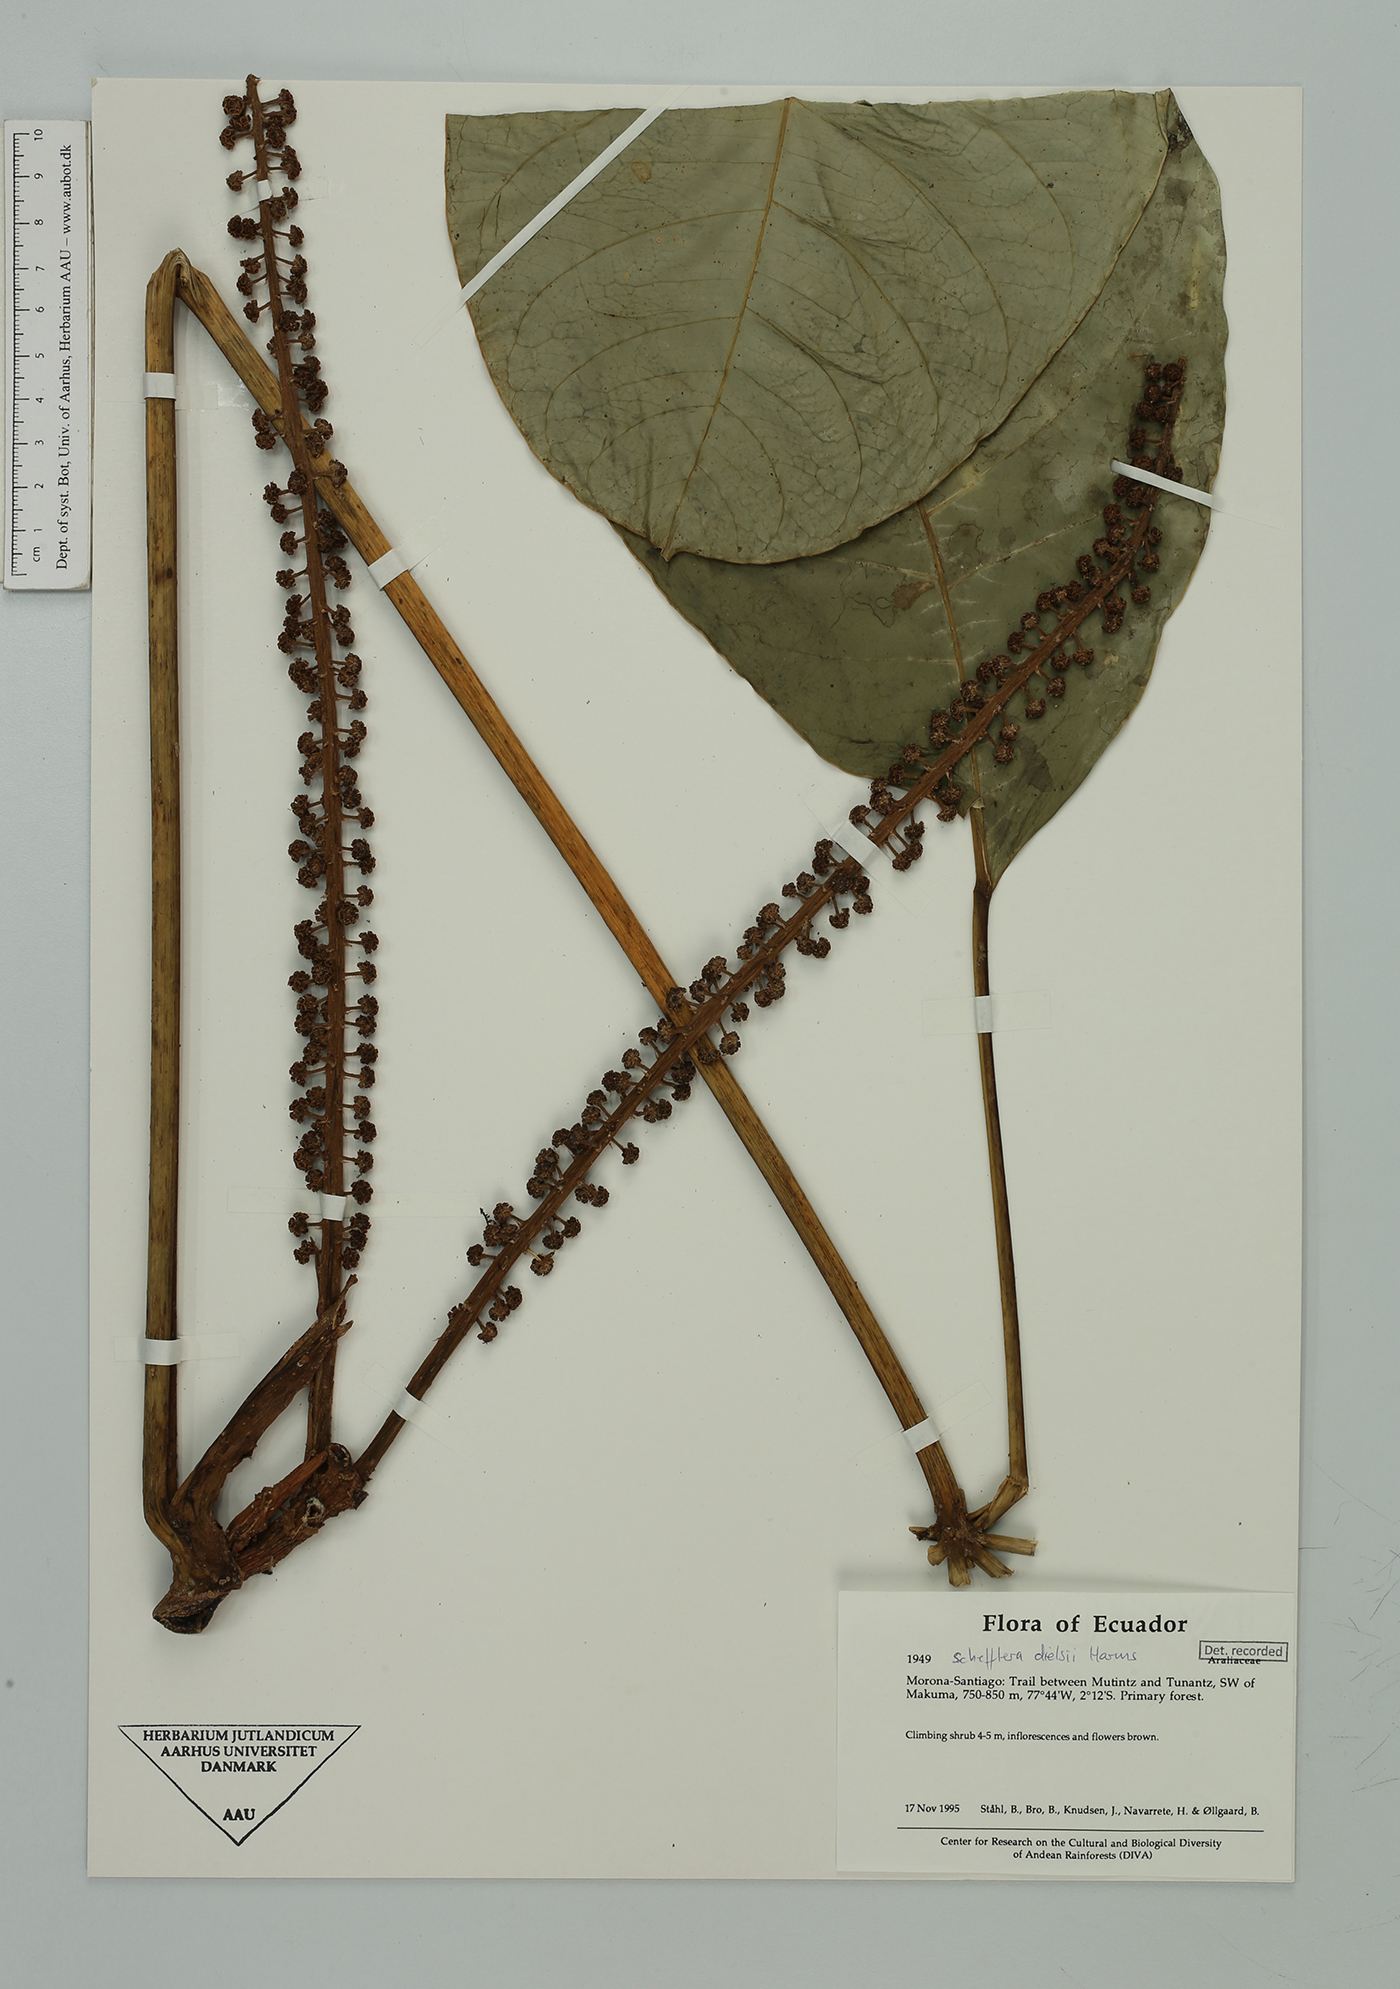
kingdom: Plantae
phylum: Tracheophyta
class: Magnoliopsida
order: Apiales
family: Araliaceae
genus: Sciodaphyllum
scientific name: Sciodaphyllum dielsii
